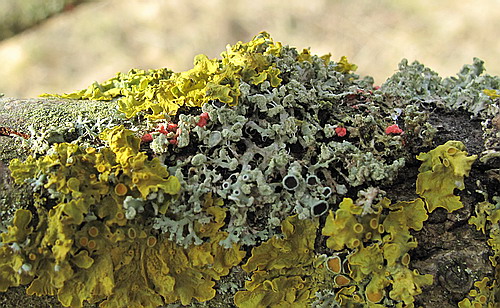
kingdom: Fungi
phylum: Ascomycota
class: Sordariomycetes
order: Hypocreales
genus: Illosporiopsis
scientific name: Illosporiopsis christiansenii
